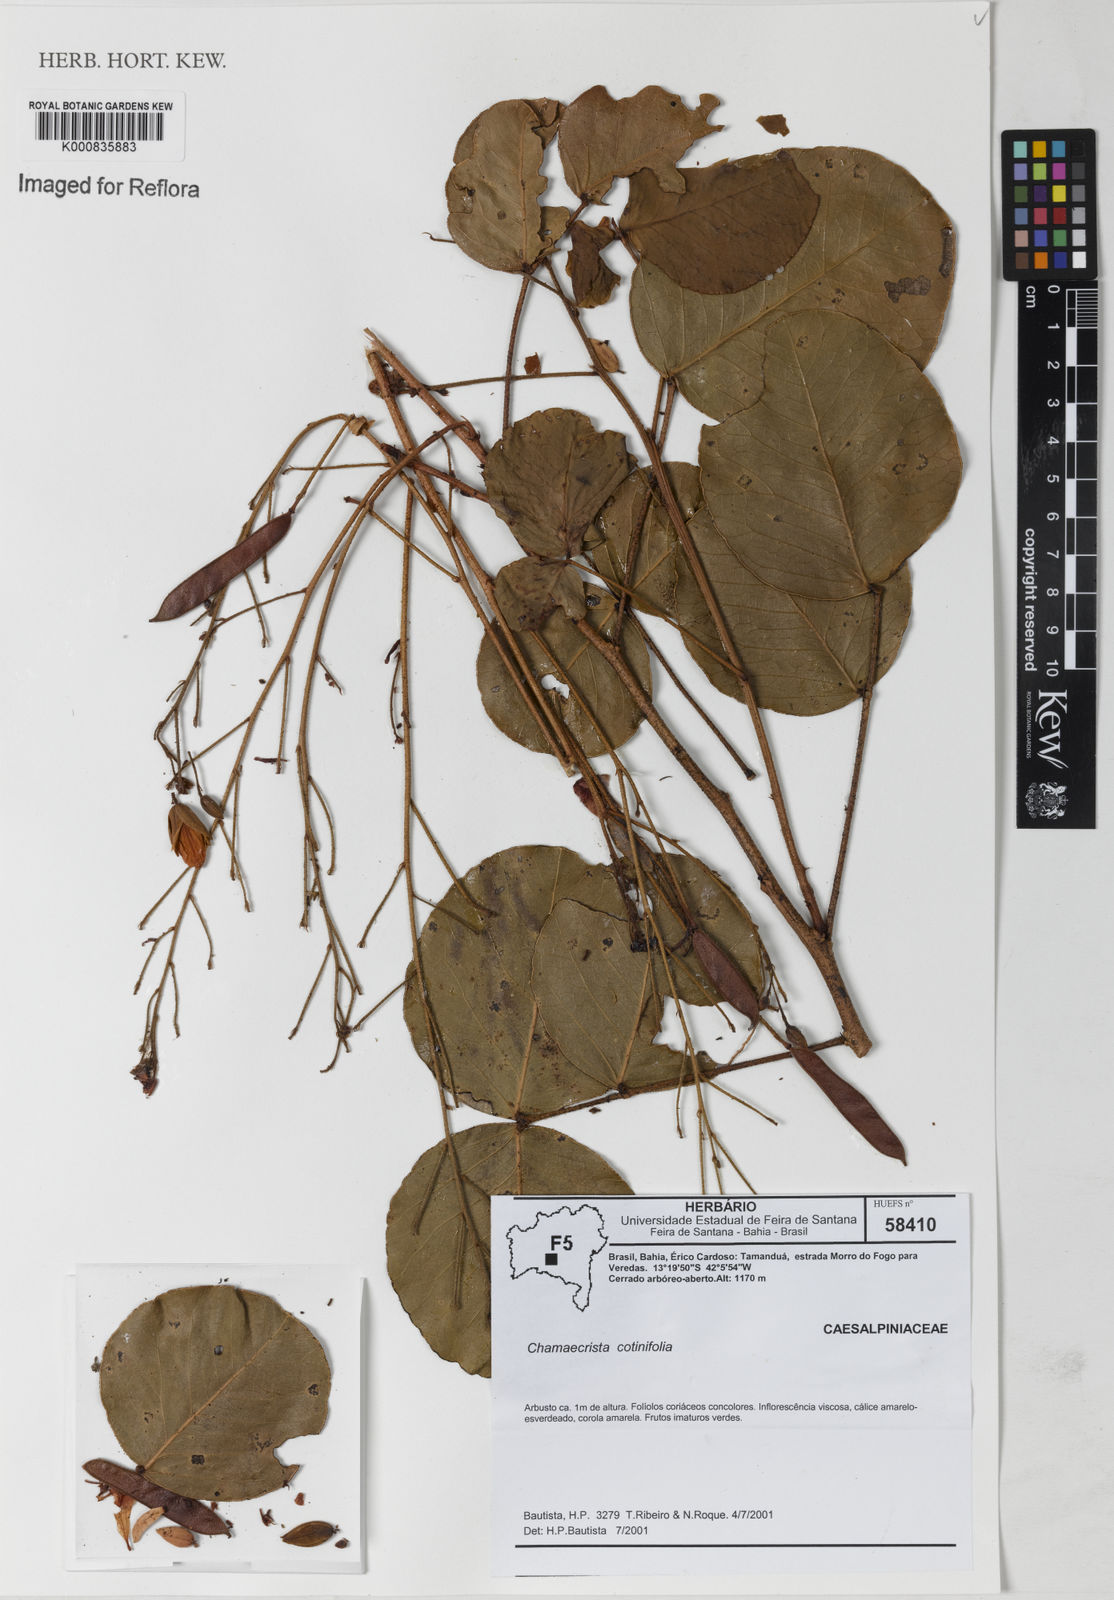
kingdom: Plantae
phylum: Tracheophyta
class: Magnoliopsida
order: Fabales
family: Fabaceae
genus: Chamaecrista
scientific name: Chamaecrista cotinifolia
